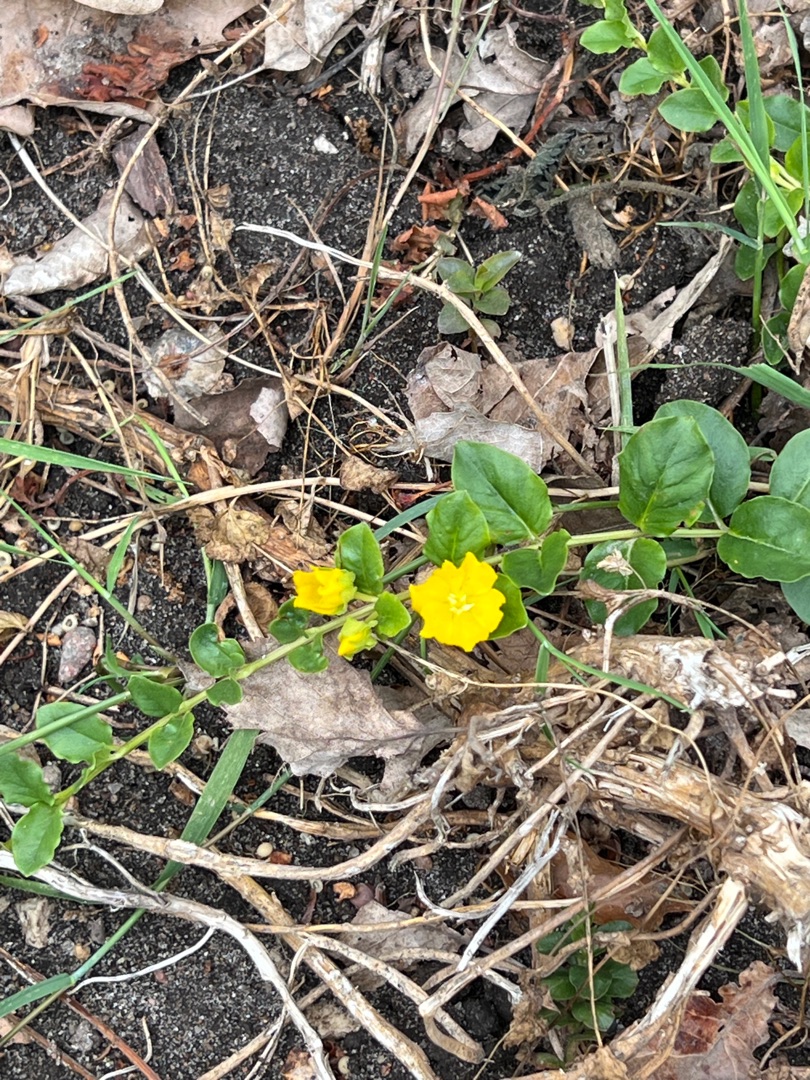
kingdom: Plantae
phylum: Tracheophyta
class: Magnoliopsida
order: Ericales
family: Primulaceae
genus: Lysimachia
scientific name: Lysimachia nummularia
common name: Pengebladet fredløs
